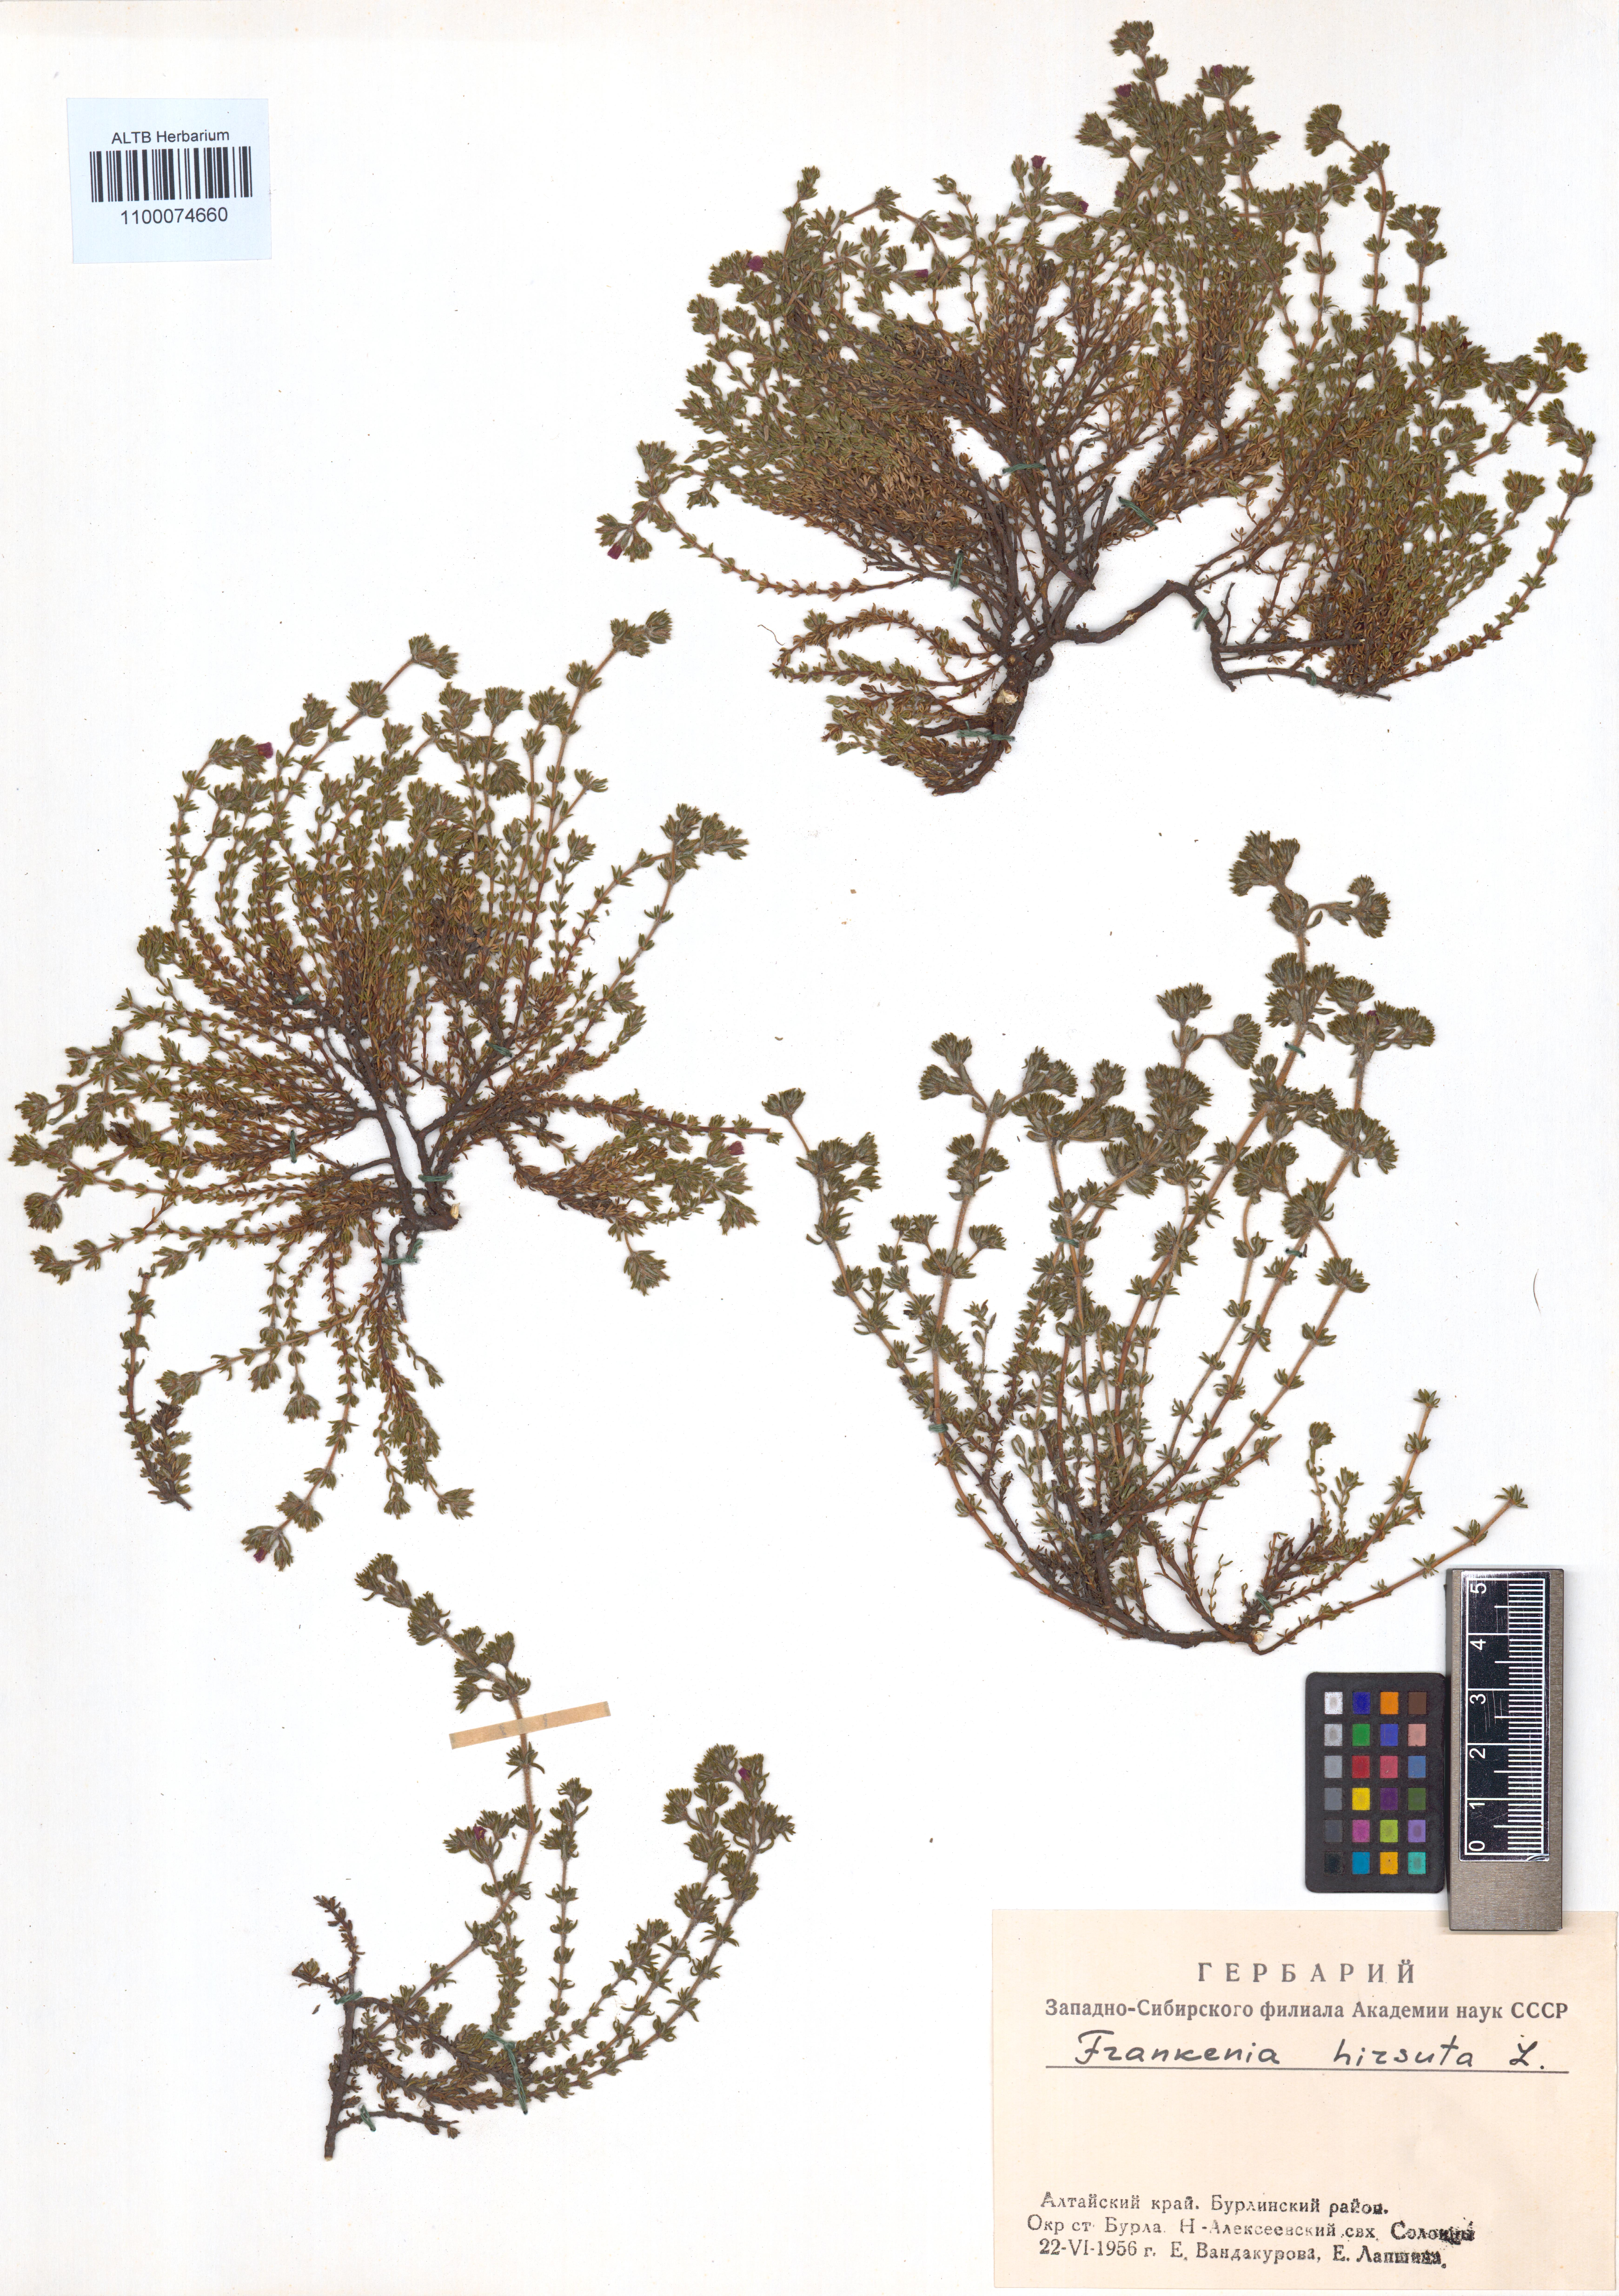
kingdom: Plantae
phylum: Tracheophyta
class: Magnoliopsida
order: Caryophyllales
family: Frankeniaceae
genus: Frankenia
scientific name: Frankenia hirsuta
